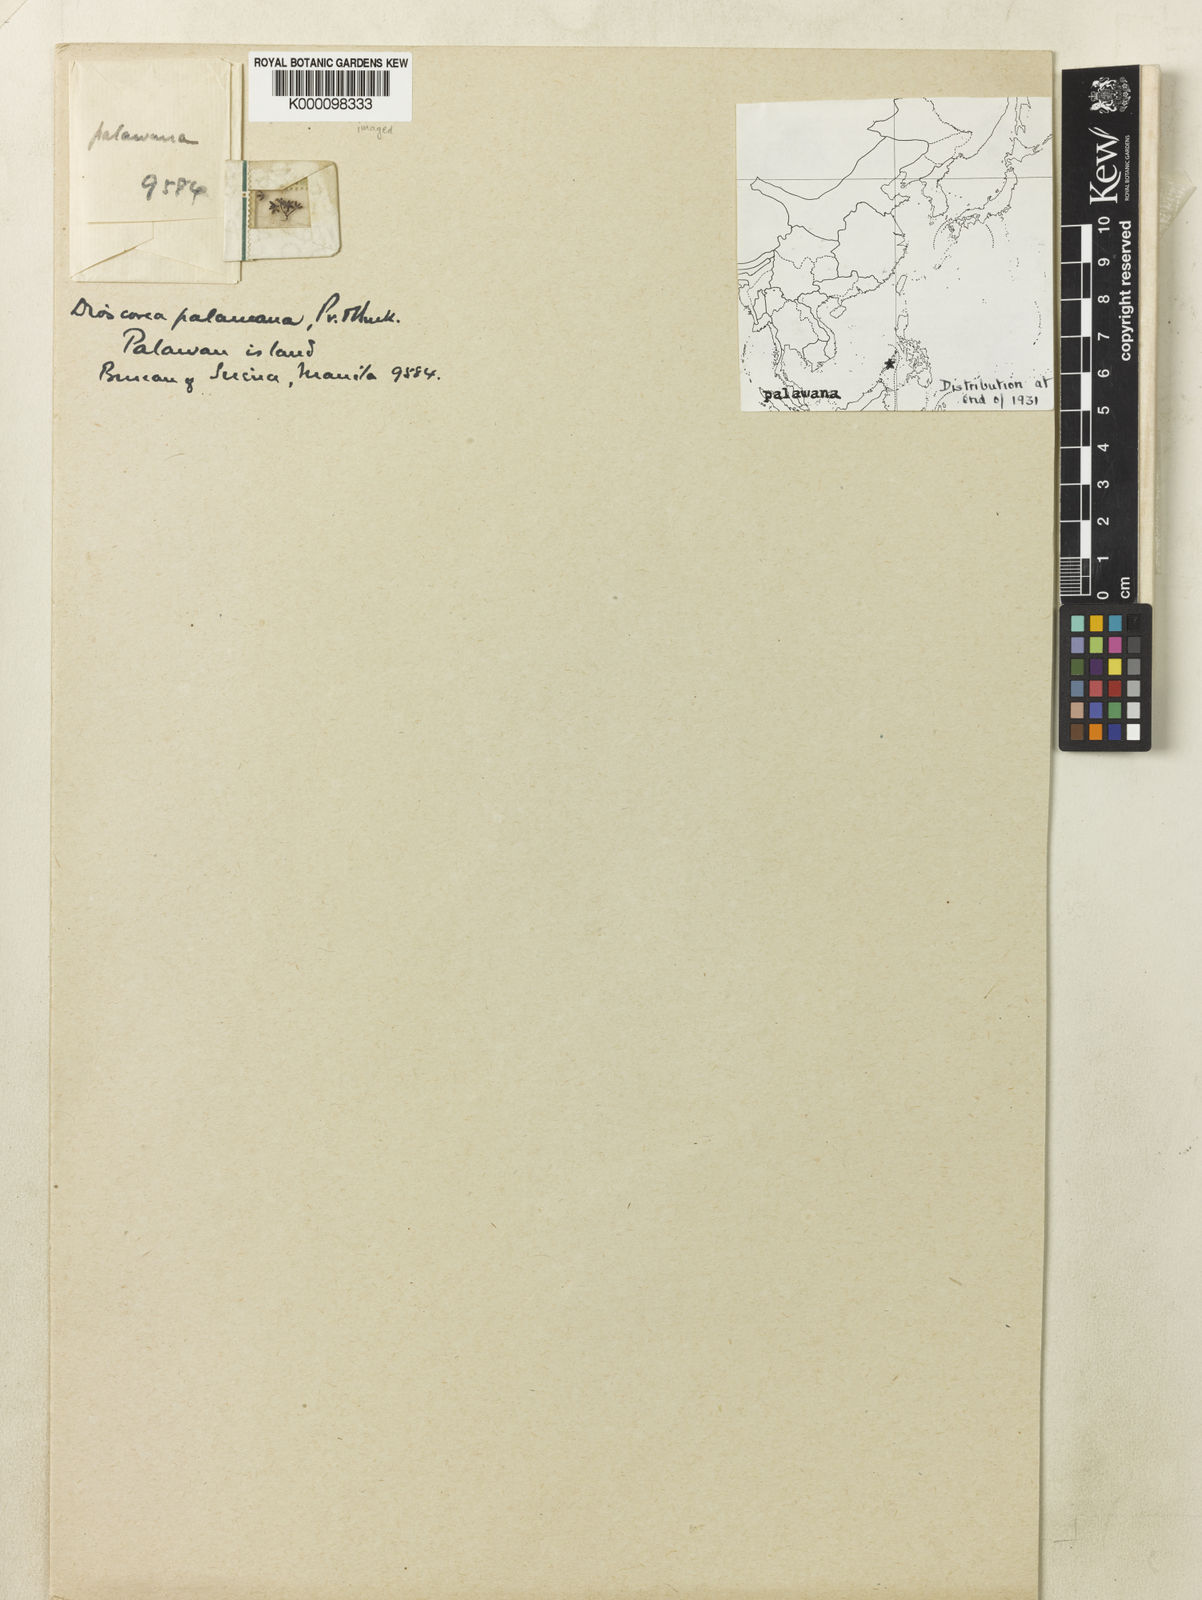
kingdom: Plantae
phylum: Tracheophyta
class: Liliopsida
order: Dioscoreales
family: Dioscoreaceae
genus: Dioscorea
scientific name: Dioscorea palawana
